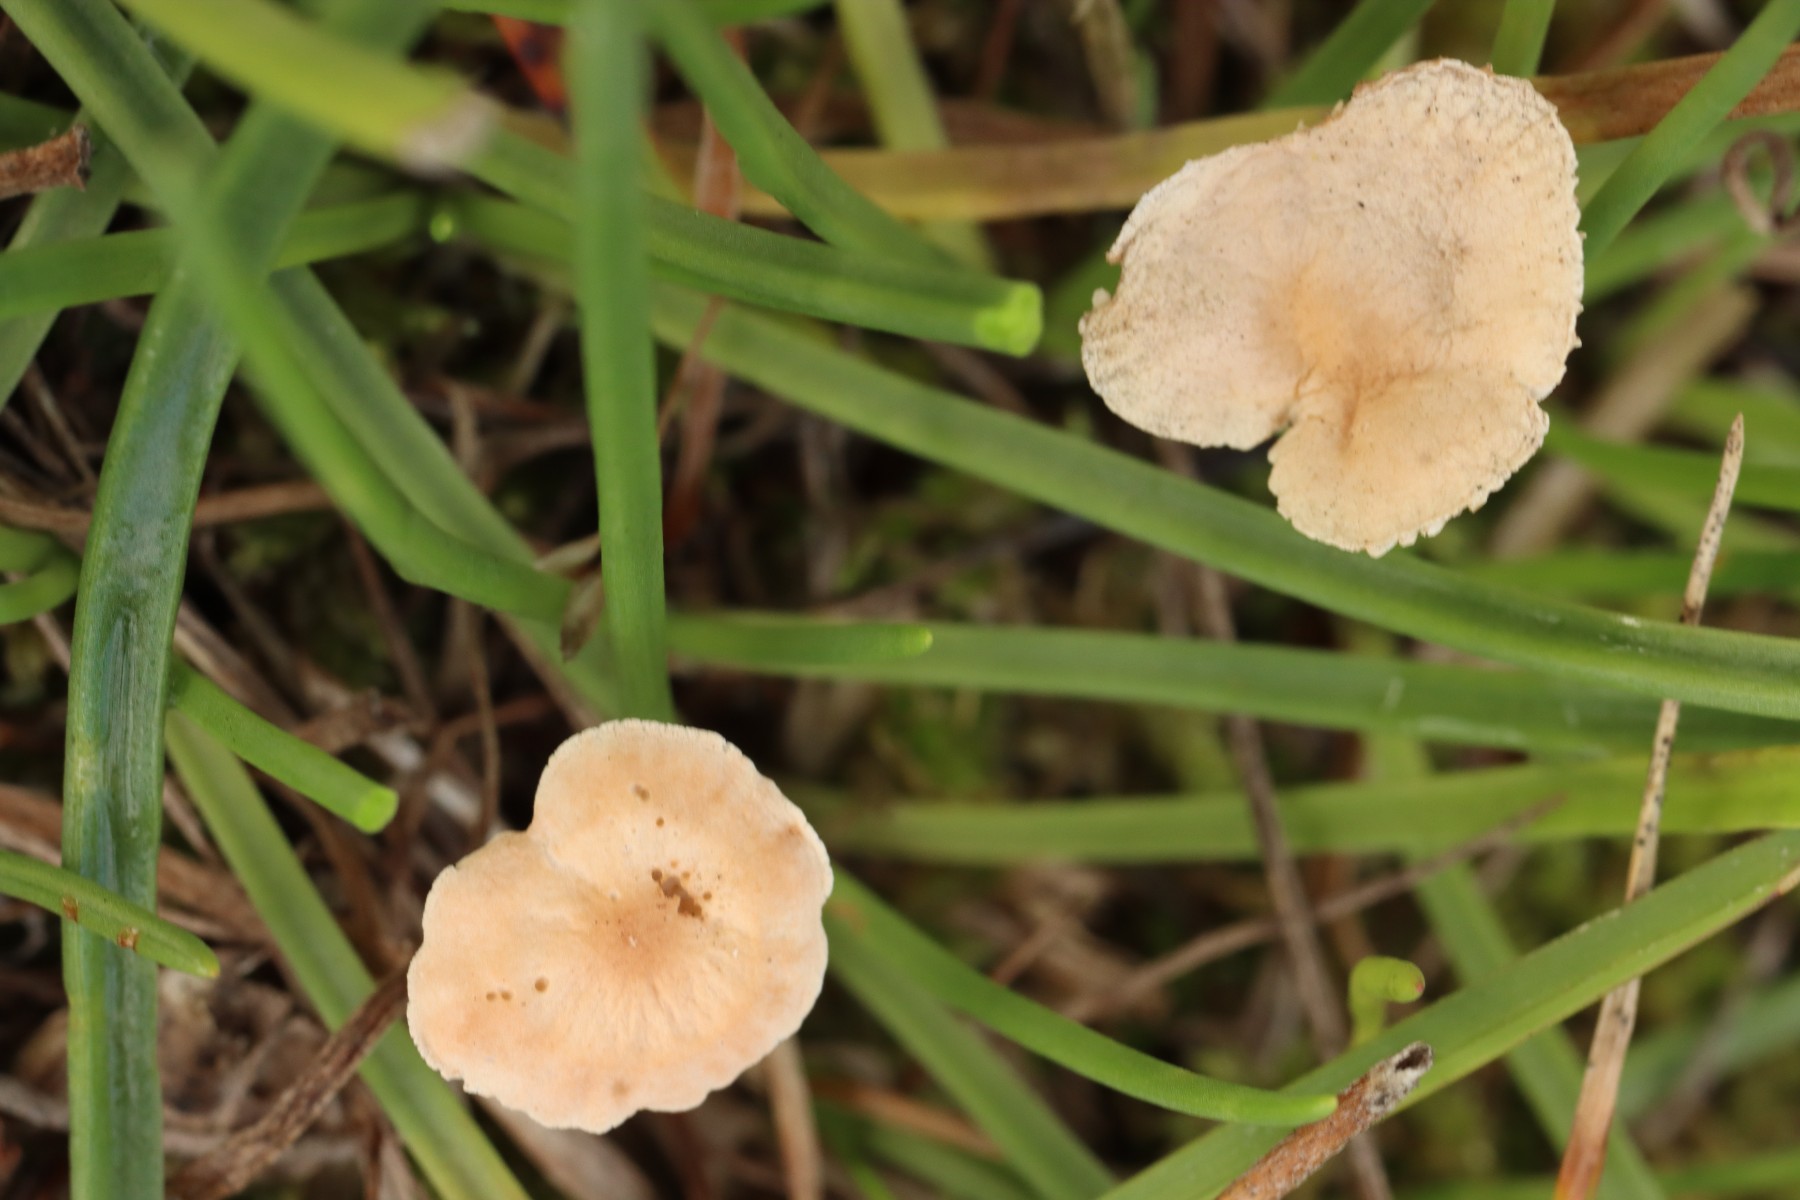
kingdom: Fungi
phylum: Basidiomycota
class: Agaricomycetes
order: Agaricales
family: Omphalotaceae
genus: Mycetinis
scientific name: Mycetinis scorodonius
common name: lille løghat
